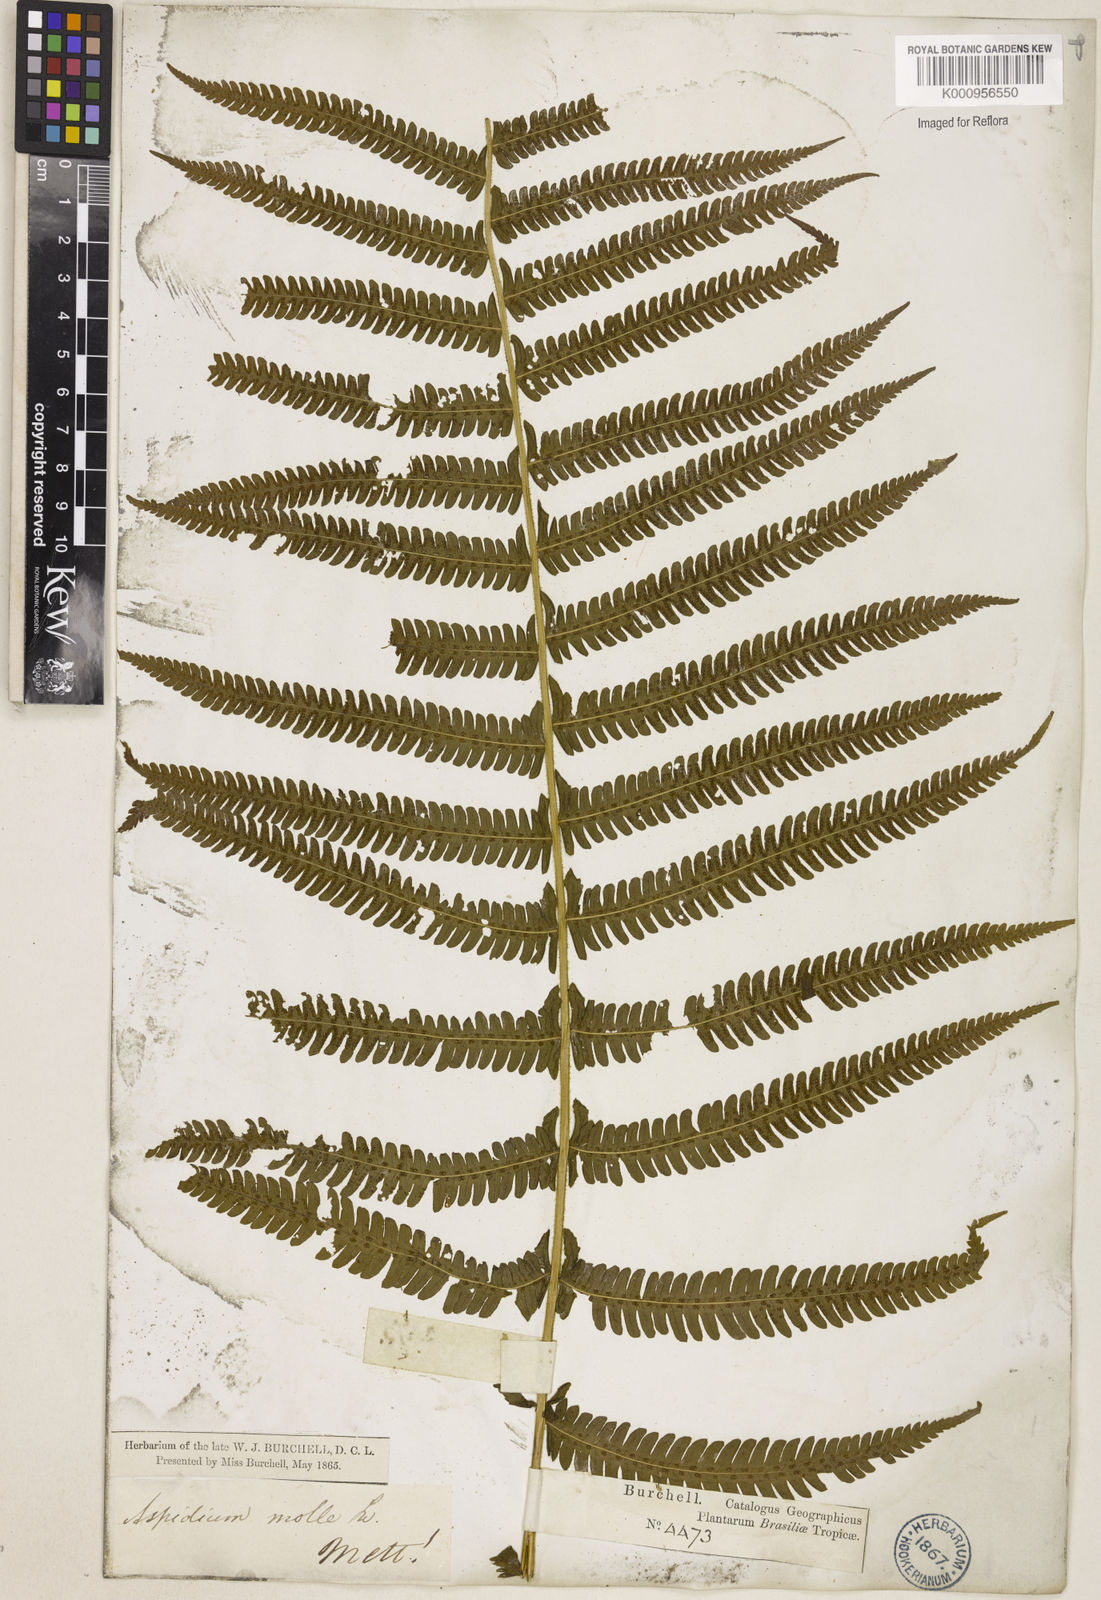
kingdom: Plantae
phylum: Tracheophyta
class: Polypodiopsida
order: Polypodiales
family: Thelypteridaceae
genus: Christella
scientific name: Christella hispidula
